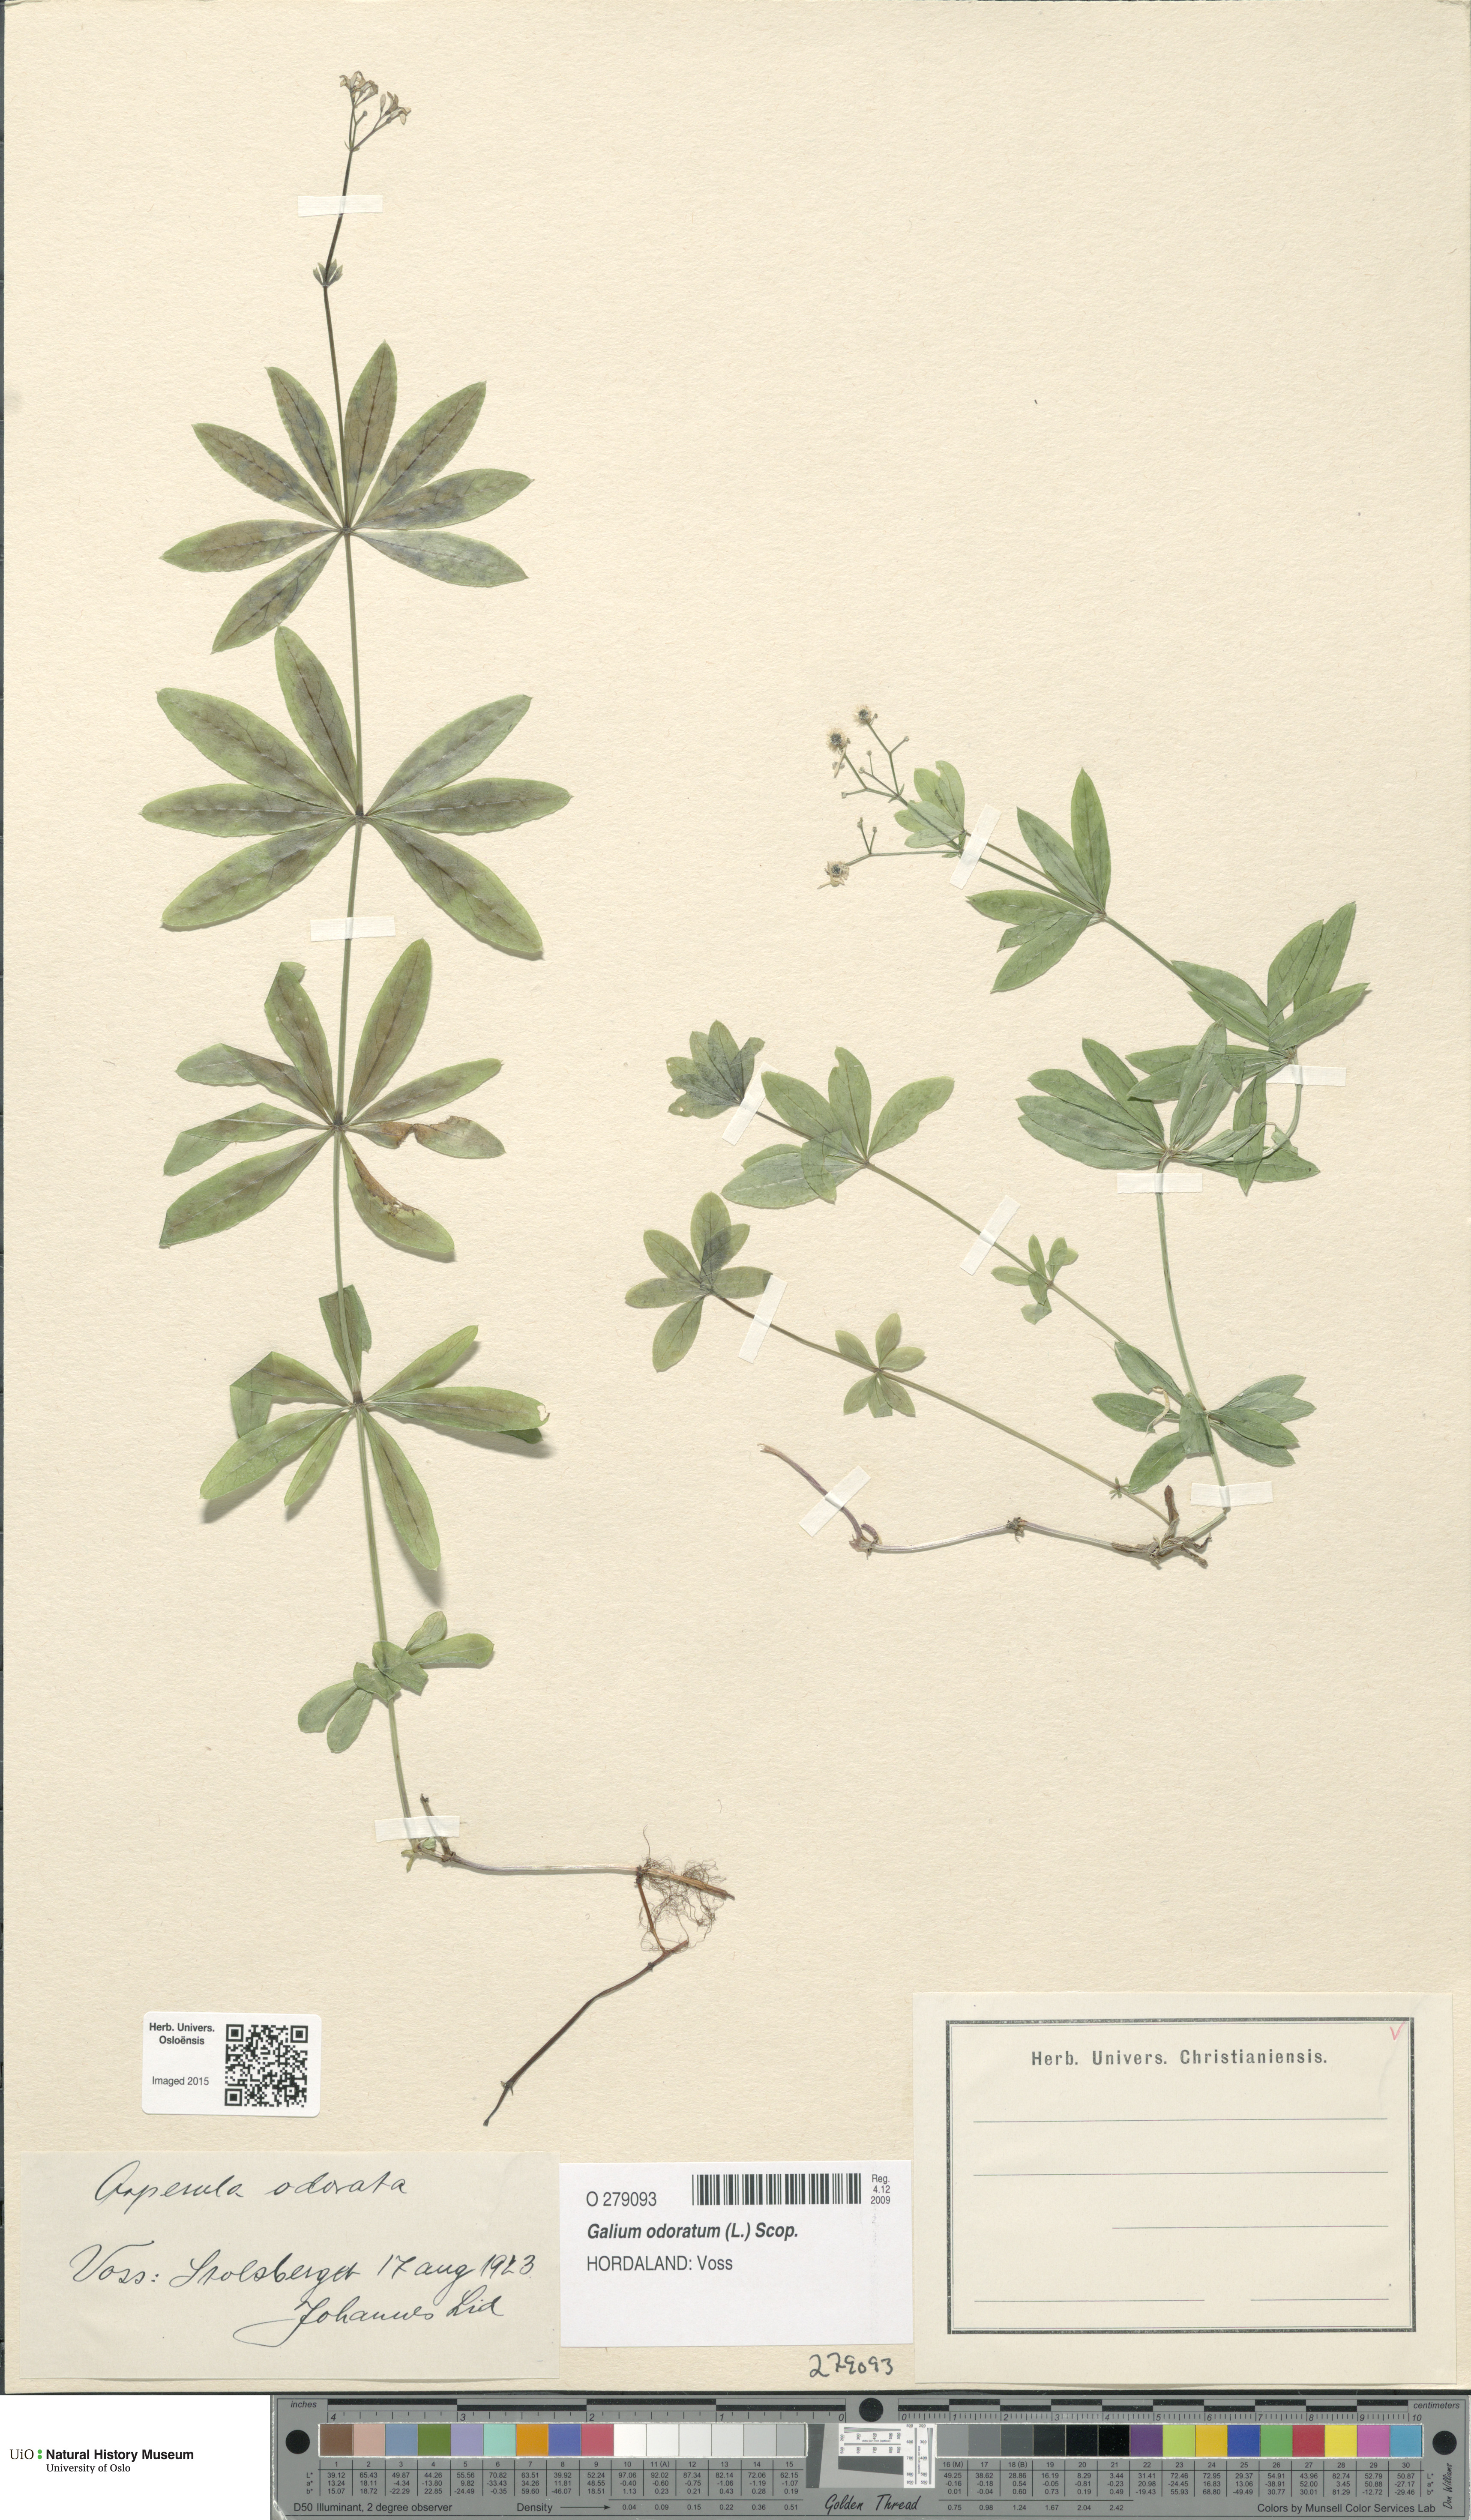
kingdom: Plantae
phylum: Tracheophyta
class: Magnoliopsida
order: Gentianales
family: Rubiaceae
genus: Galium
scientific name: Galium odoratum
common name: Sweet woodruff
